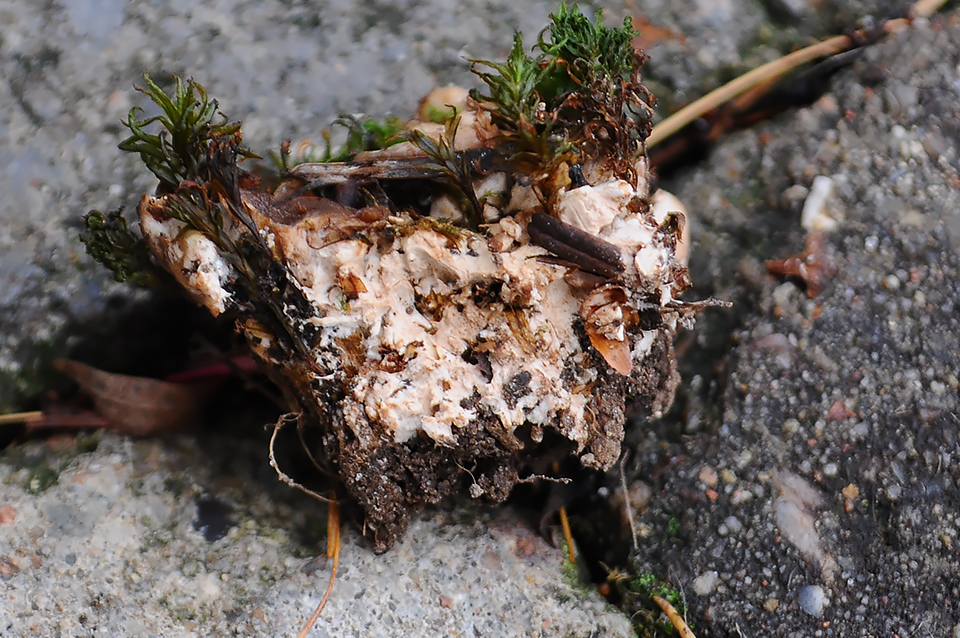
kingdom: Fungi
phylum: Basidiomycota
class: Agaricomycetes
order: Agaricales
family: Pseudoclitocybaceae
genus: Musumecia
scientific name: Musumecia bettlachensis
